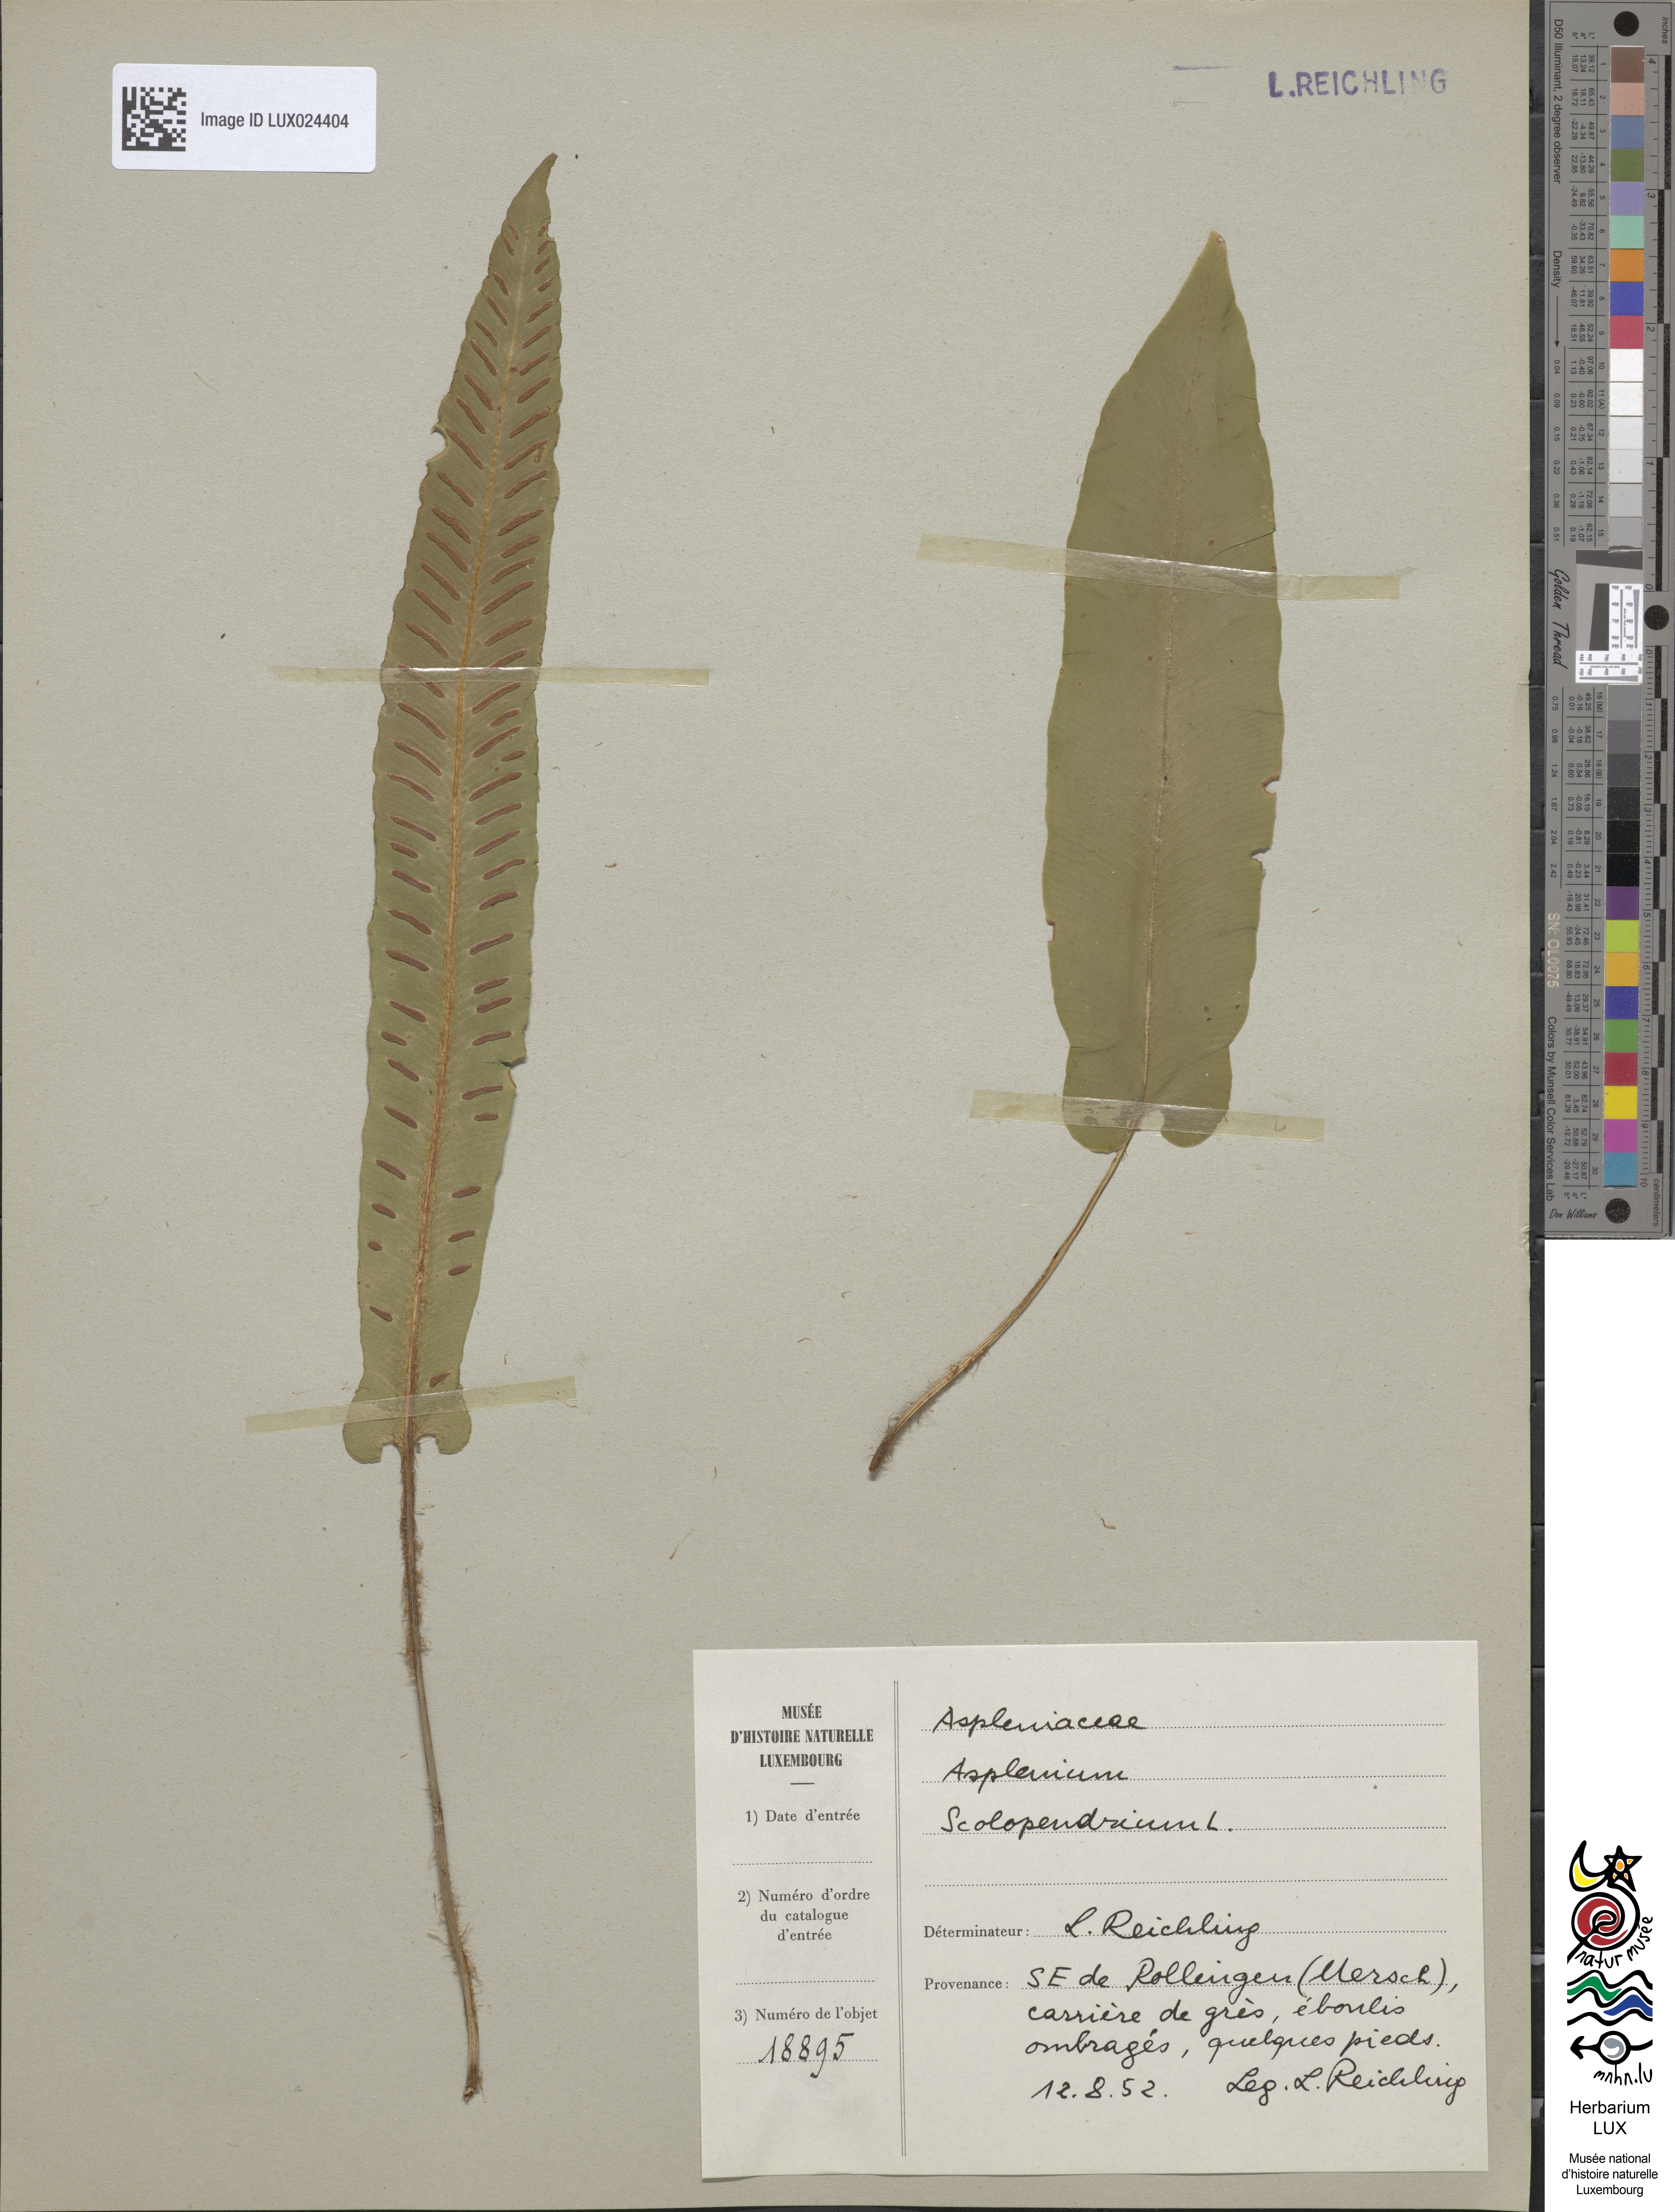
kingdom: Plantae
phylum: Tracheophyta
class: Polypodiopsida
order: Polypodiales
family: Aspleniaceae
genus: Asplenium
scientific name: Asplenium scolopendrium
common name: Hart's-tongue fern
